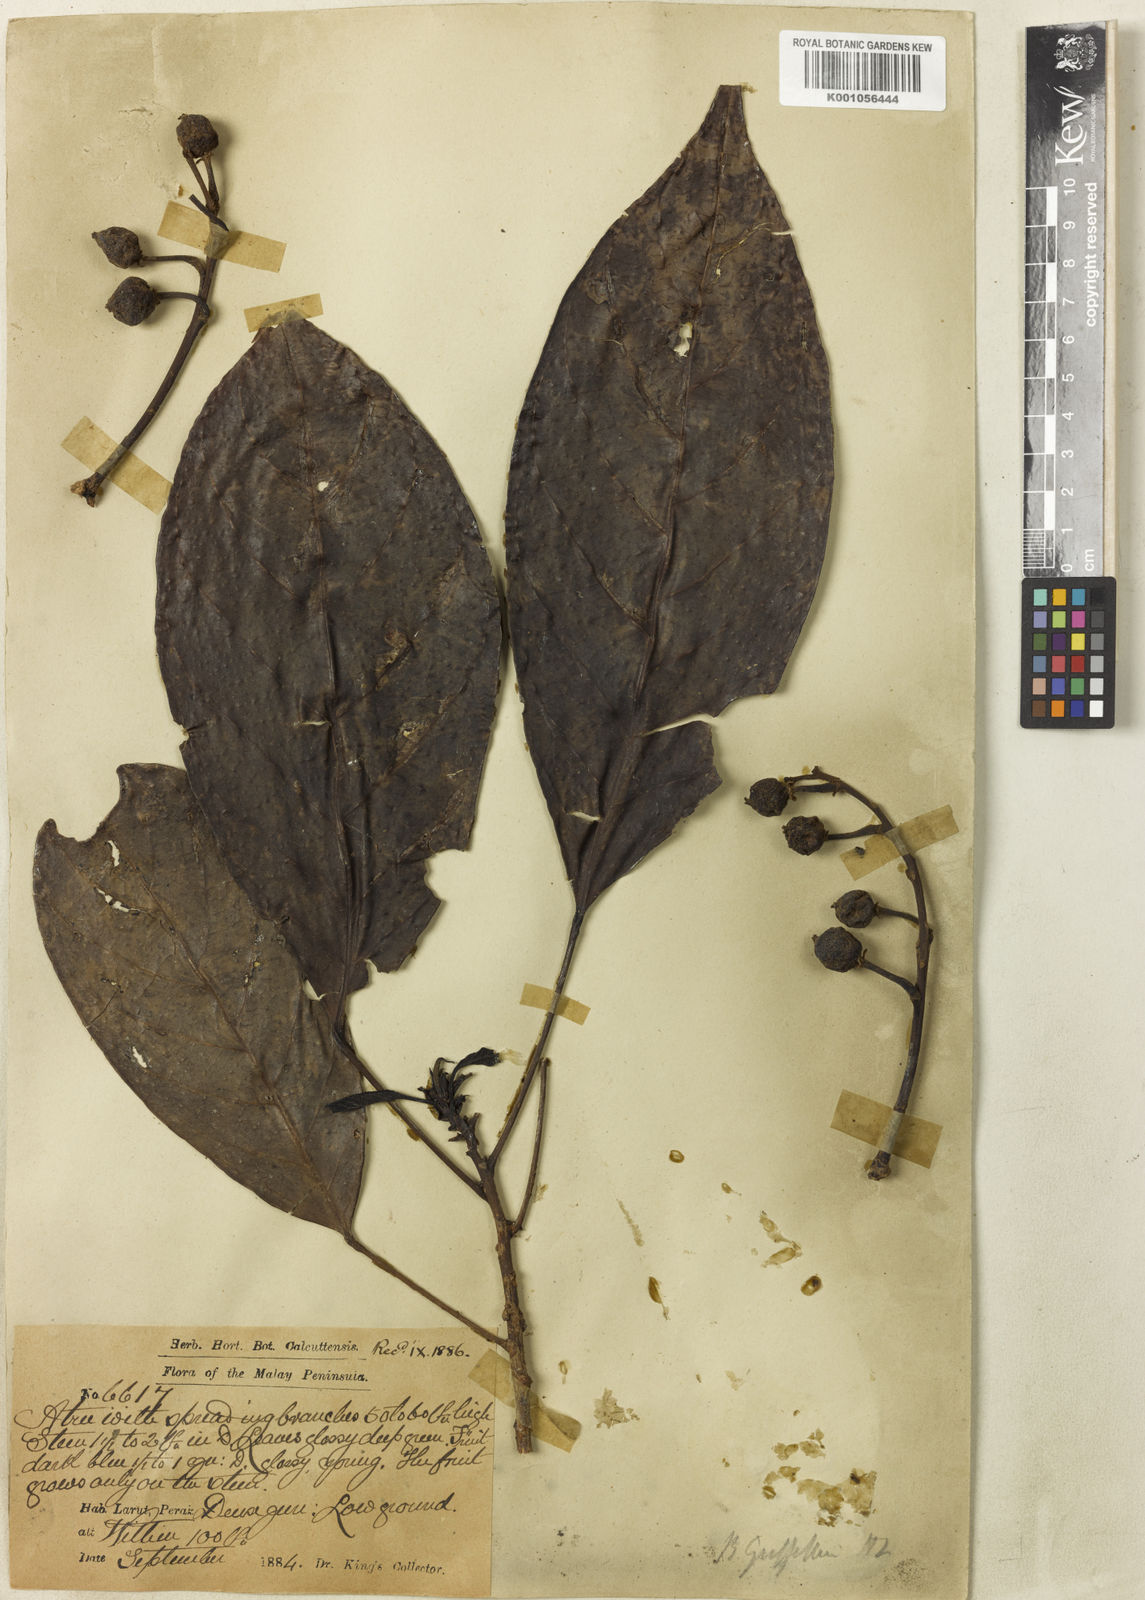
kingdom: Plantae
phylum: Tracheophyta
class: Magnoliopsida
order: Malpighiales
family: Phyllanthaceae
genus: Baccaurea
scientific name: Baccaurea
